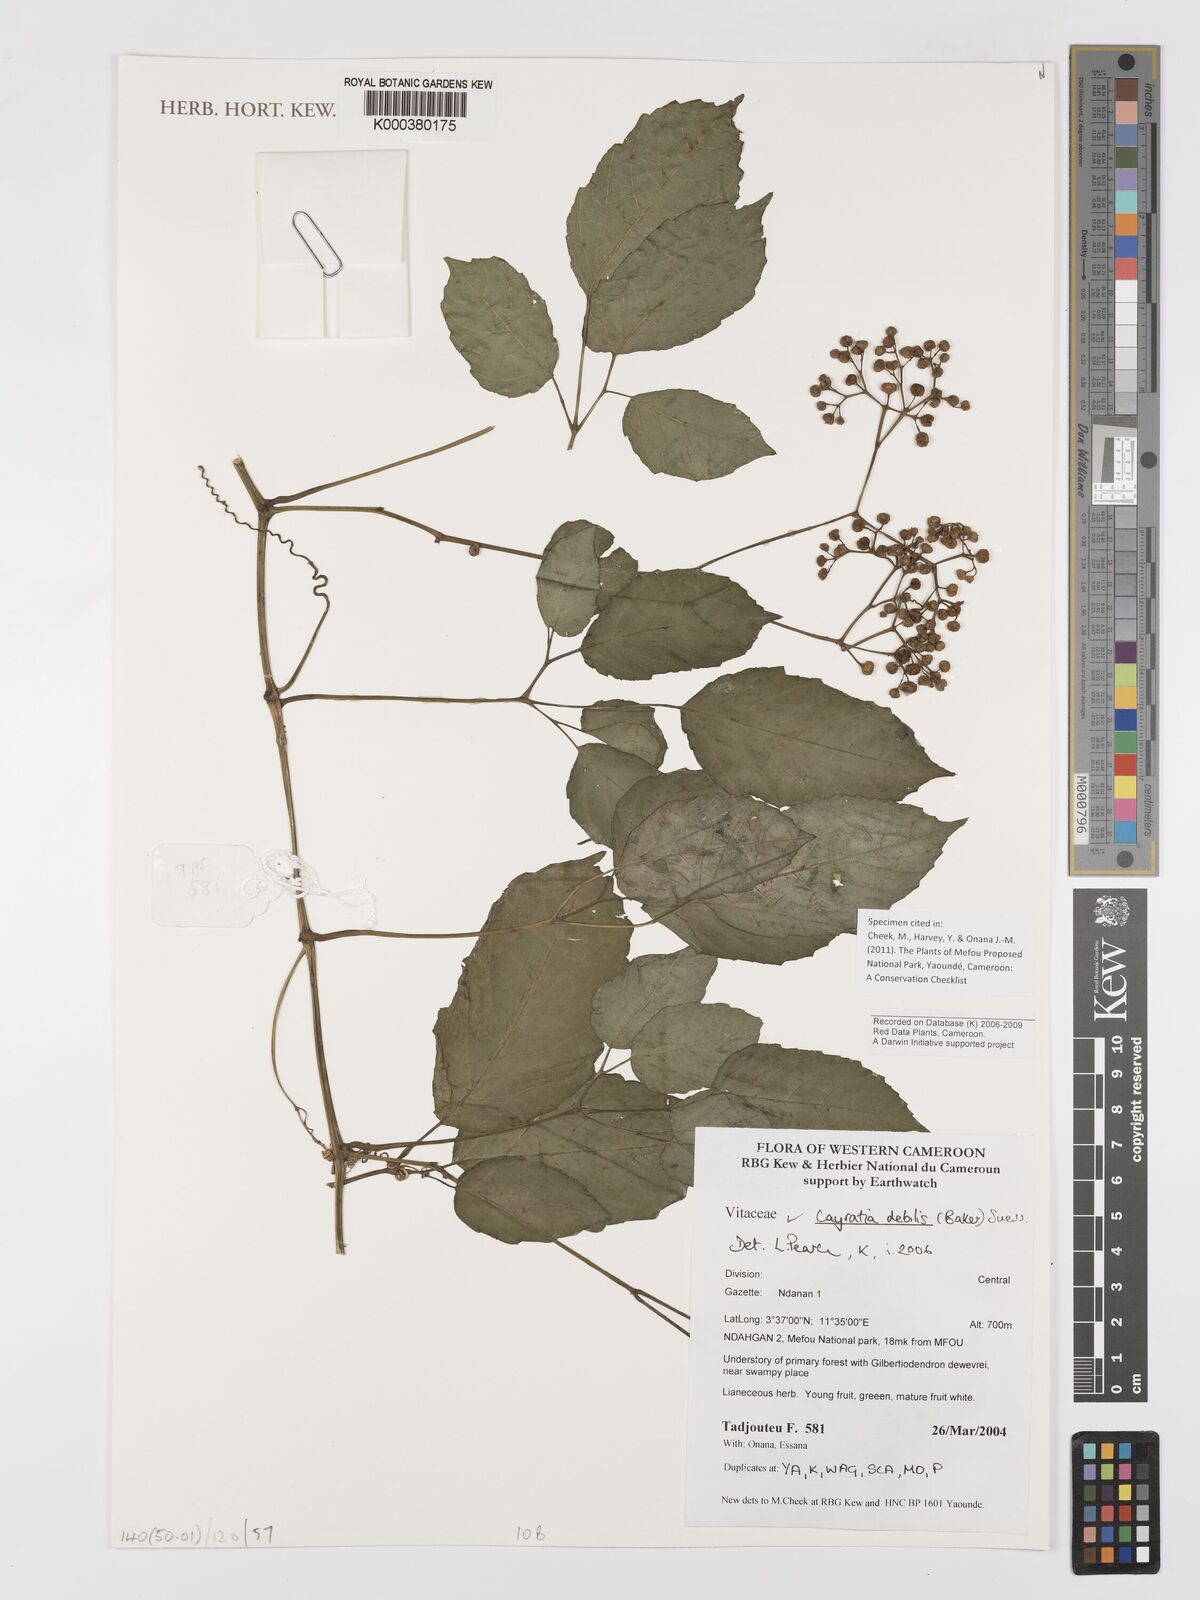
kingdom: Plantae
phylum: Tracheophyta
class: Magnoliopsida
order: Vitales
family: Vitaceae
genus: Afrocayratia
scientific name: Afrocayratia debilis
